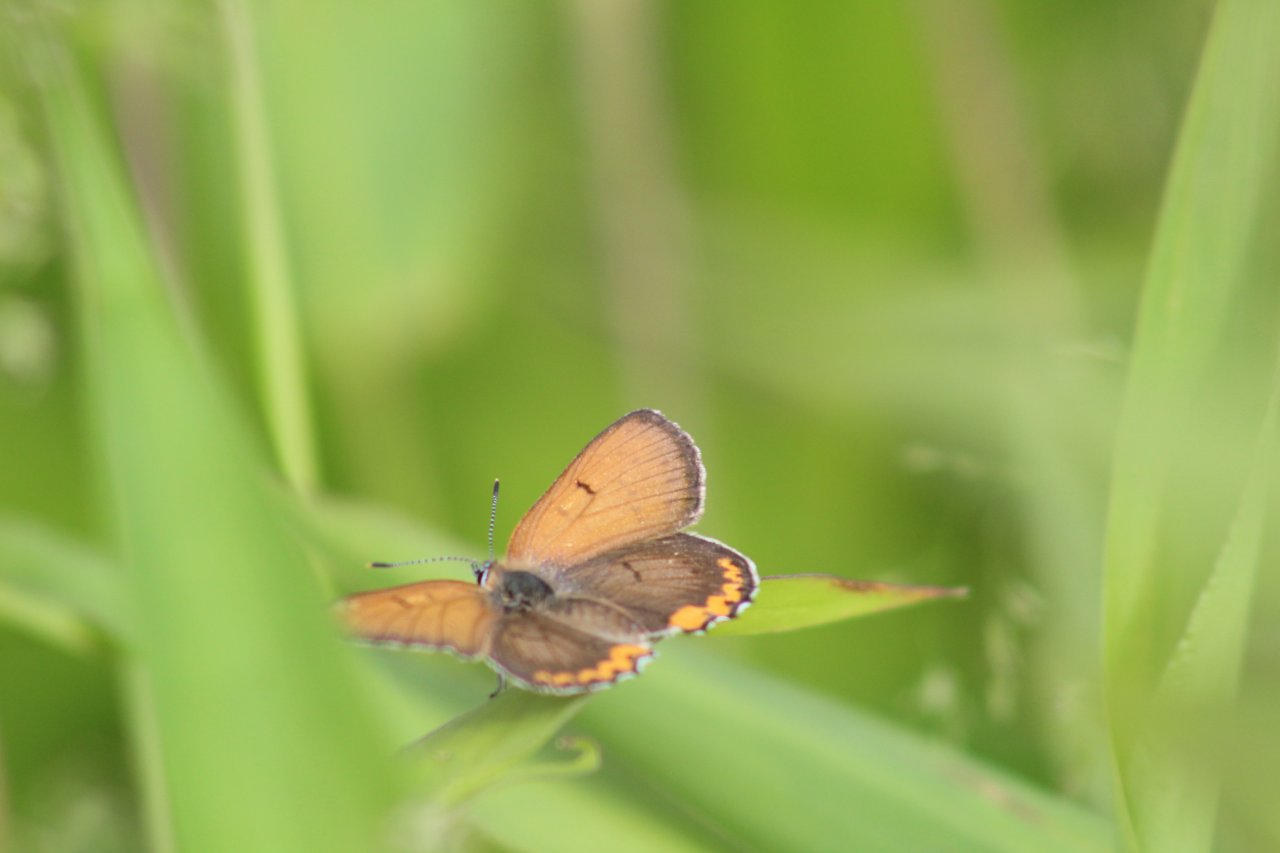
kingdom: Animalia
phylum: Arthropoda
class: Insecta
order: Lepidoptera
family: Sesiidae
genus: Sesia
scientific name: Sesia Lycaena hyllus
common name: Bronze Copper
